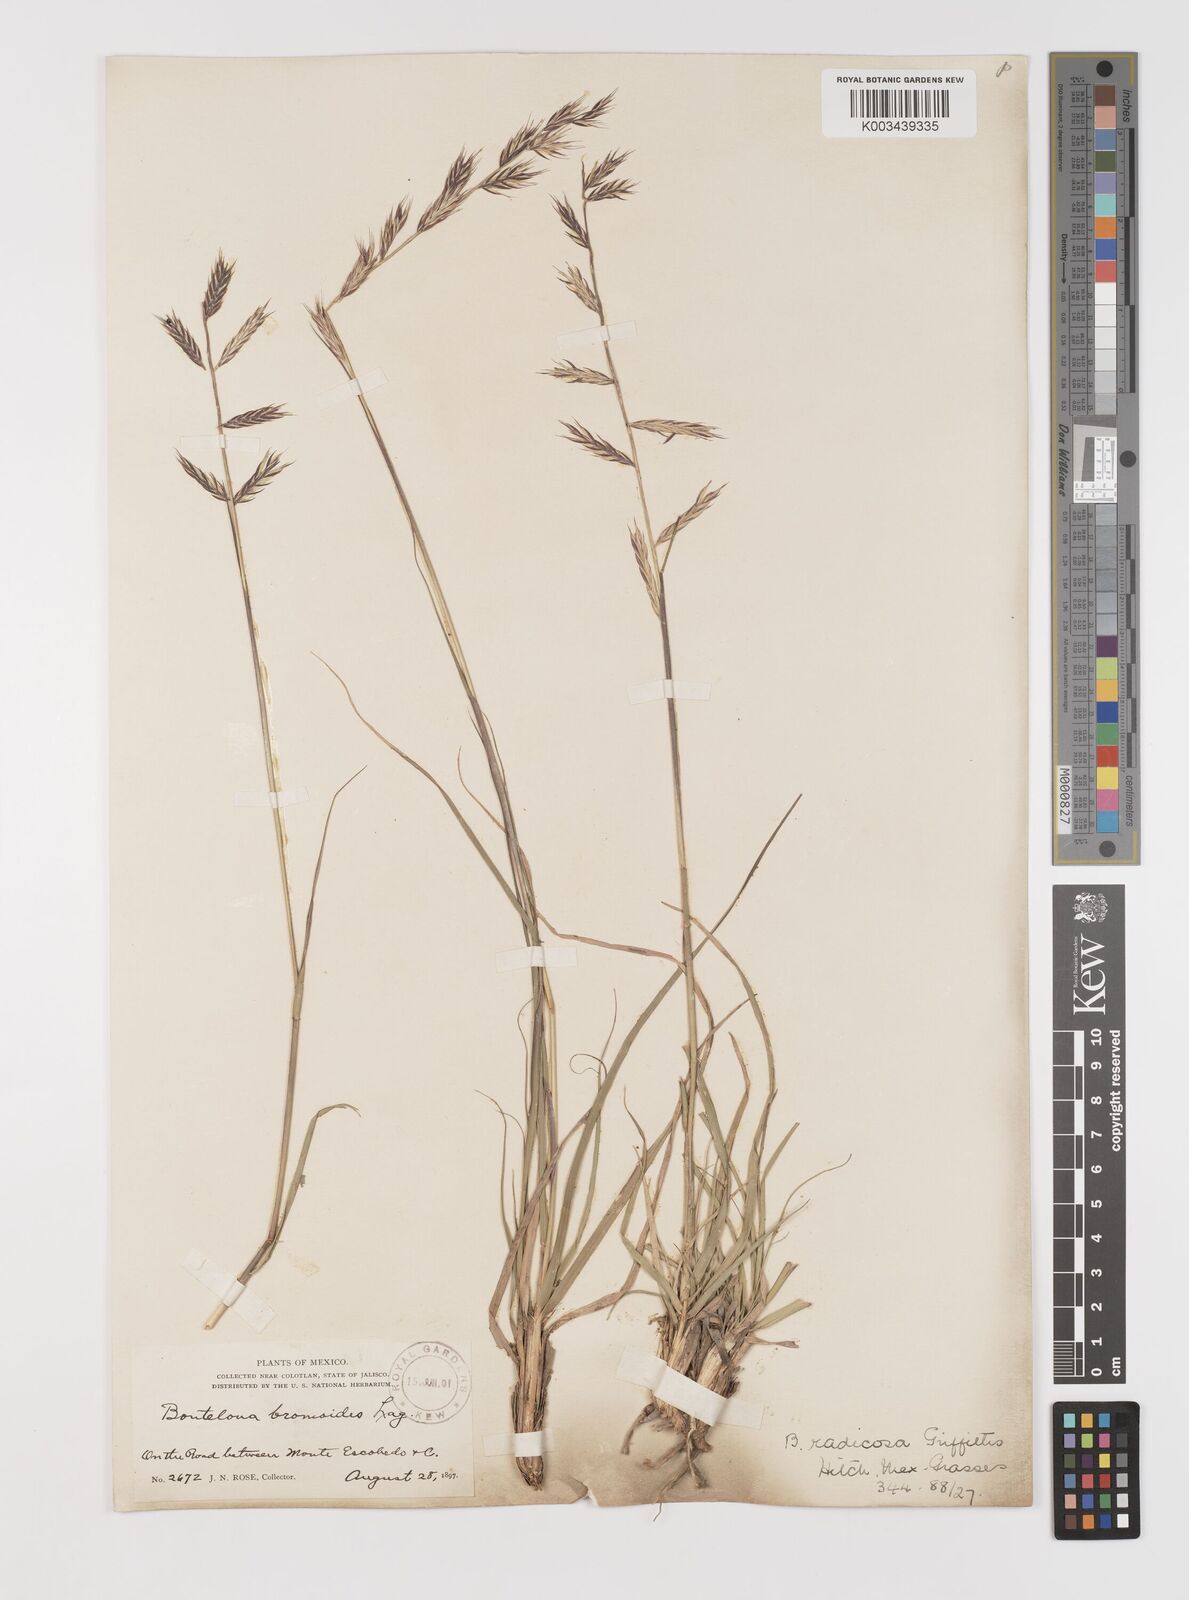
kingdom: Plantae
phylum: Tracheophyta
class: Liliopsida
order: Poales
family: Poaceae
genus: Bouteloua
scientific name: Bouteloua radicosa
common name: Purple grama
